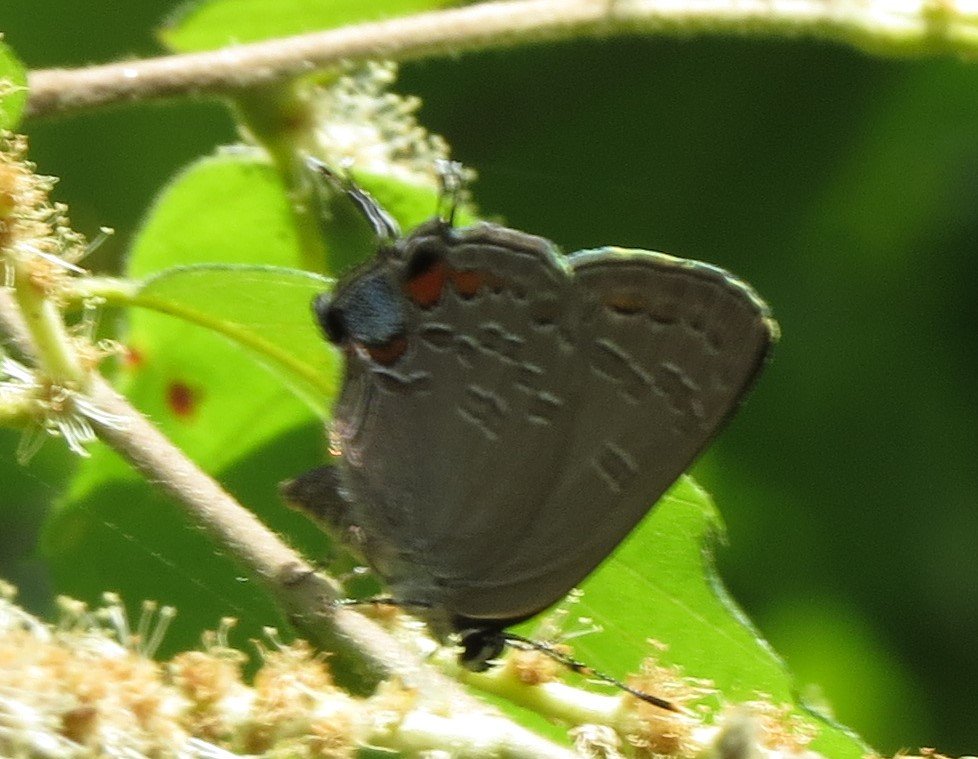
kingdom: Animalia
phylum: Arthropoda
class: Insecta
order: Lepidoptera
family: Lycaenidae
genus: Strymon
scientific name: Strymon kingi
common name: King's Hairstreak
